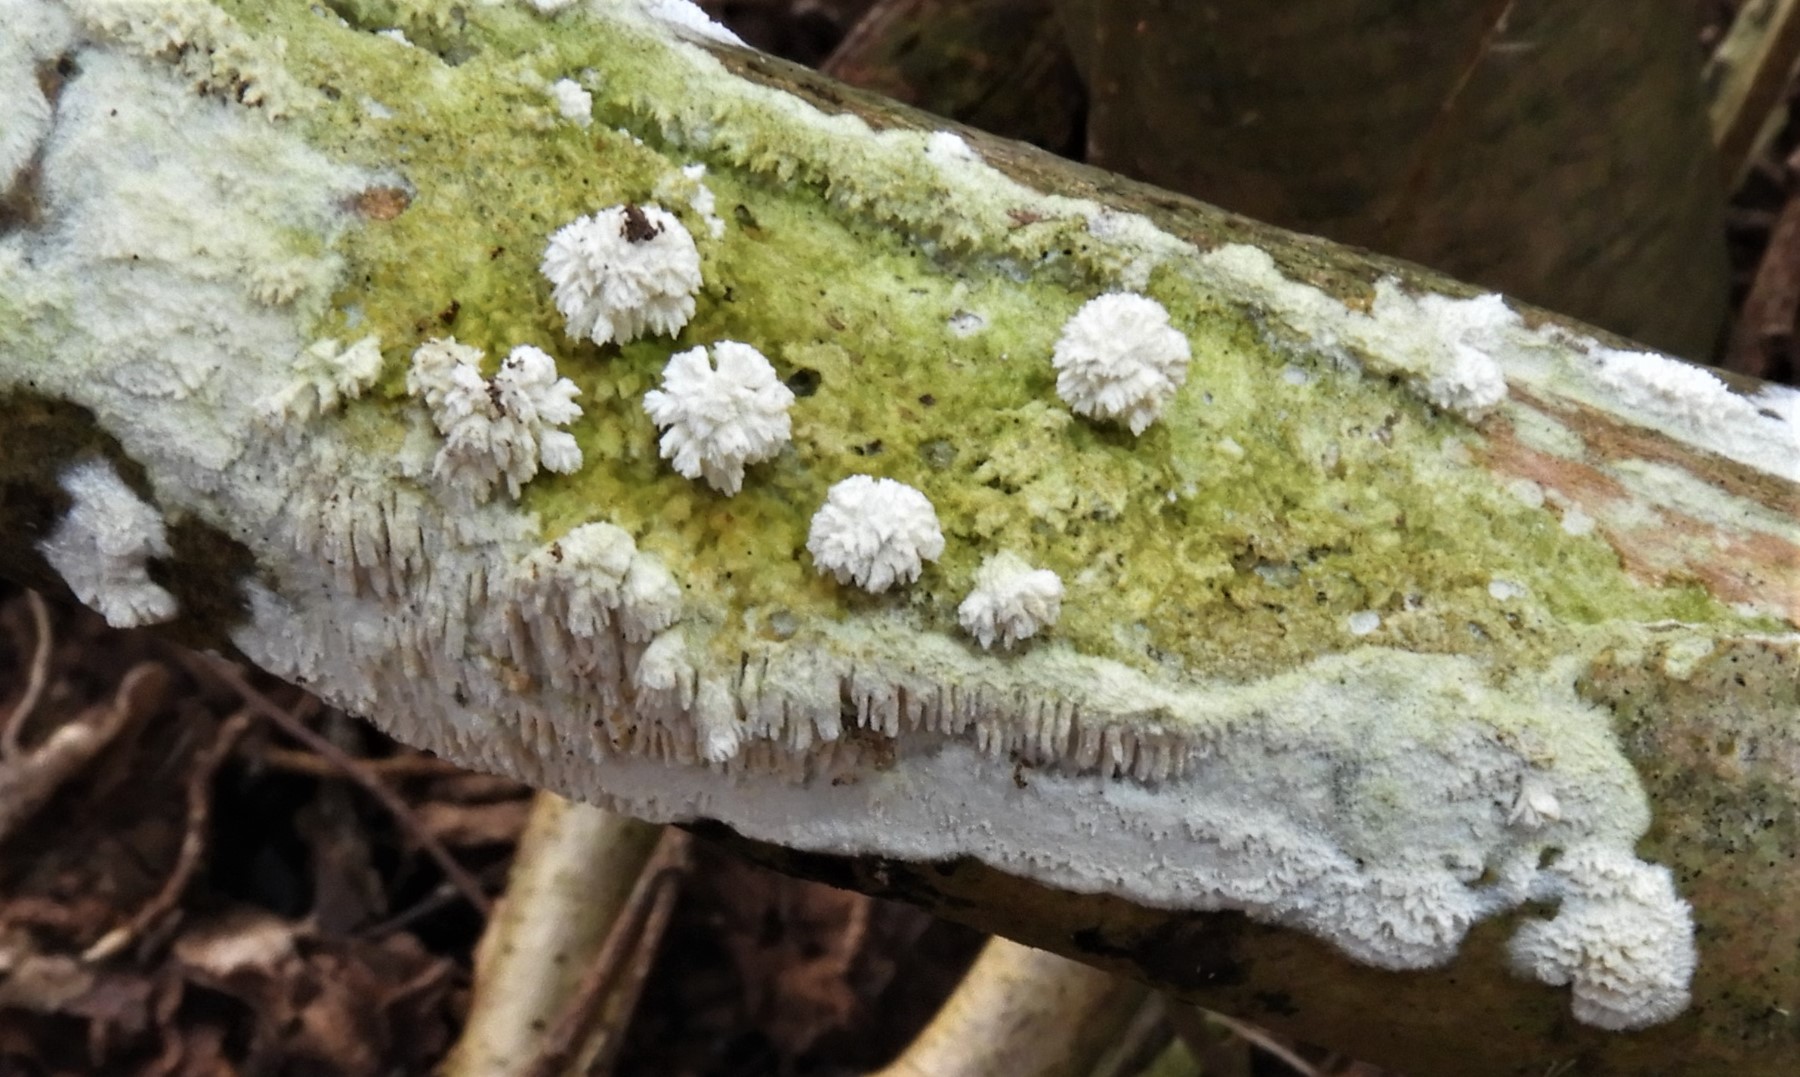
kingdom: Fungi
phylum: Basidiomycota
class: Agaricomycetes
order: Hymenochaetales
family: Schizoporaceae
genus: Schizopora
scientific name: Schizopora paradoxa
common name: hvid tandsvamp
